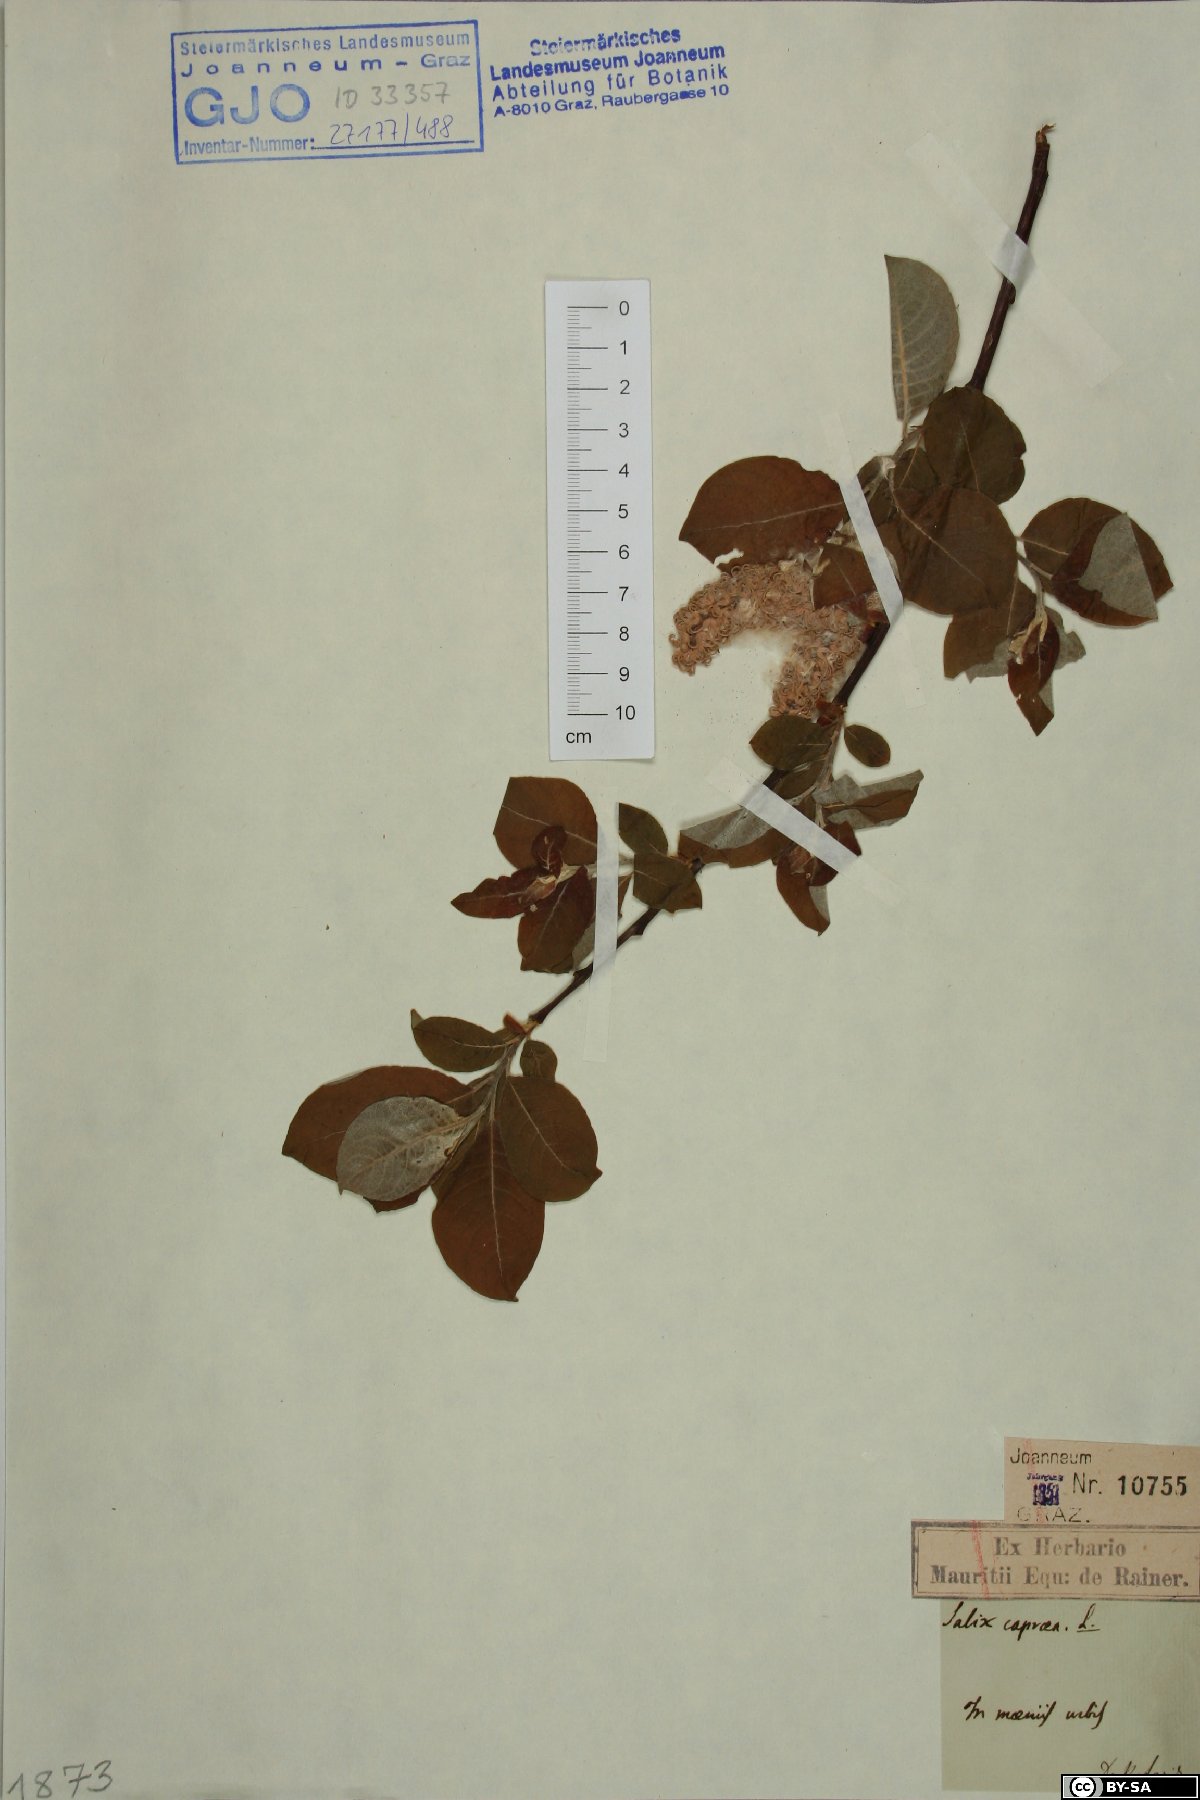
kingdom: Plantae
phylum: Tracheophyta
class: Magnoliopsida
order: Malpighiales
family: Salicaceae
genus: Salix
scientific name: Salix caprea
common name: Goat willow
